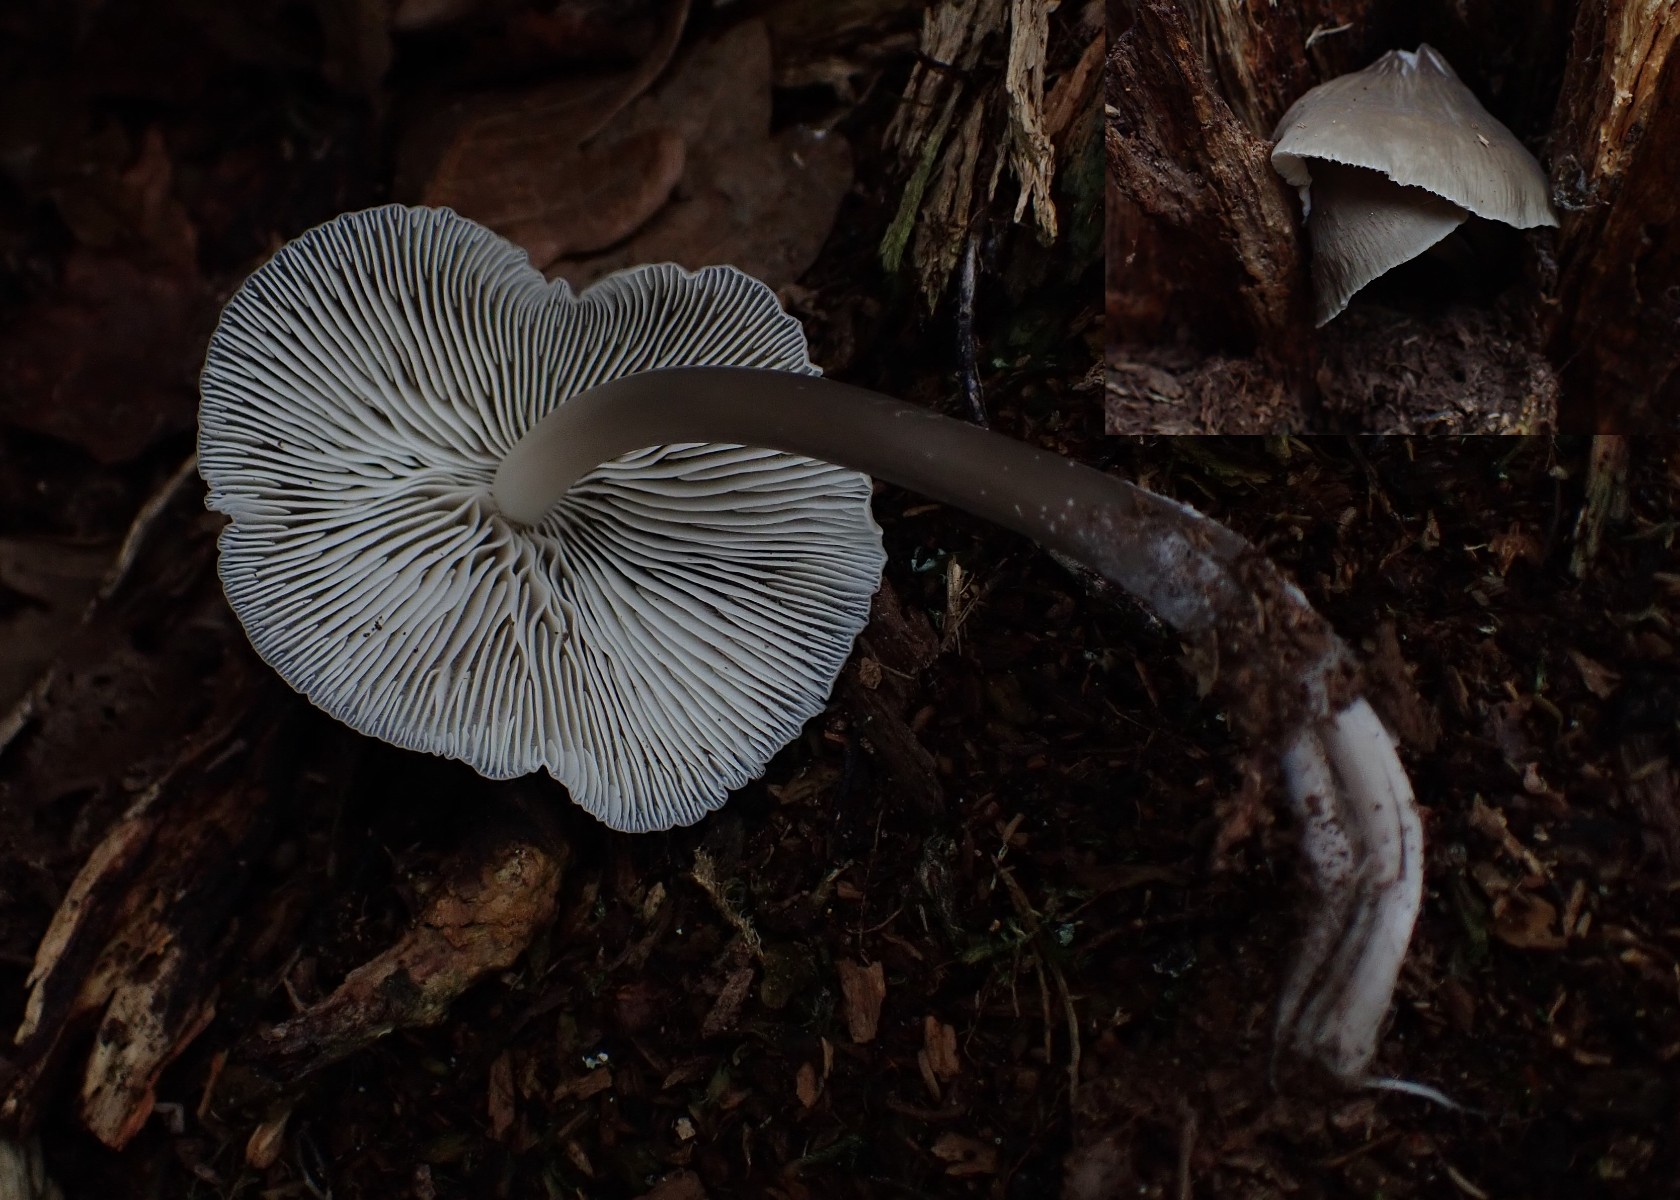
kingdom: Fungi
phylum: Basidiomycota
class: Agaricomycetes
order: Agaricales
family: Mycenaceae
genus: Mycena
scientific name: Mycena galericulata
